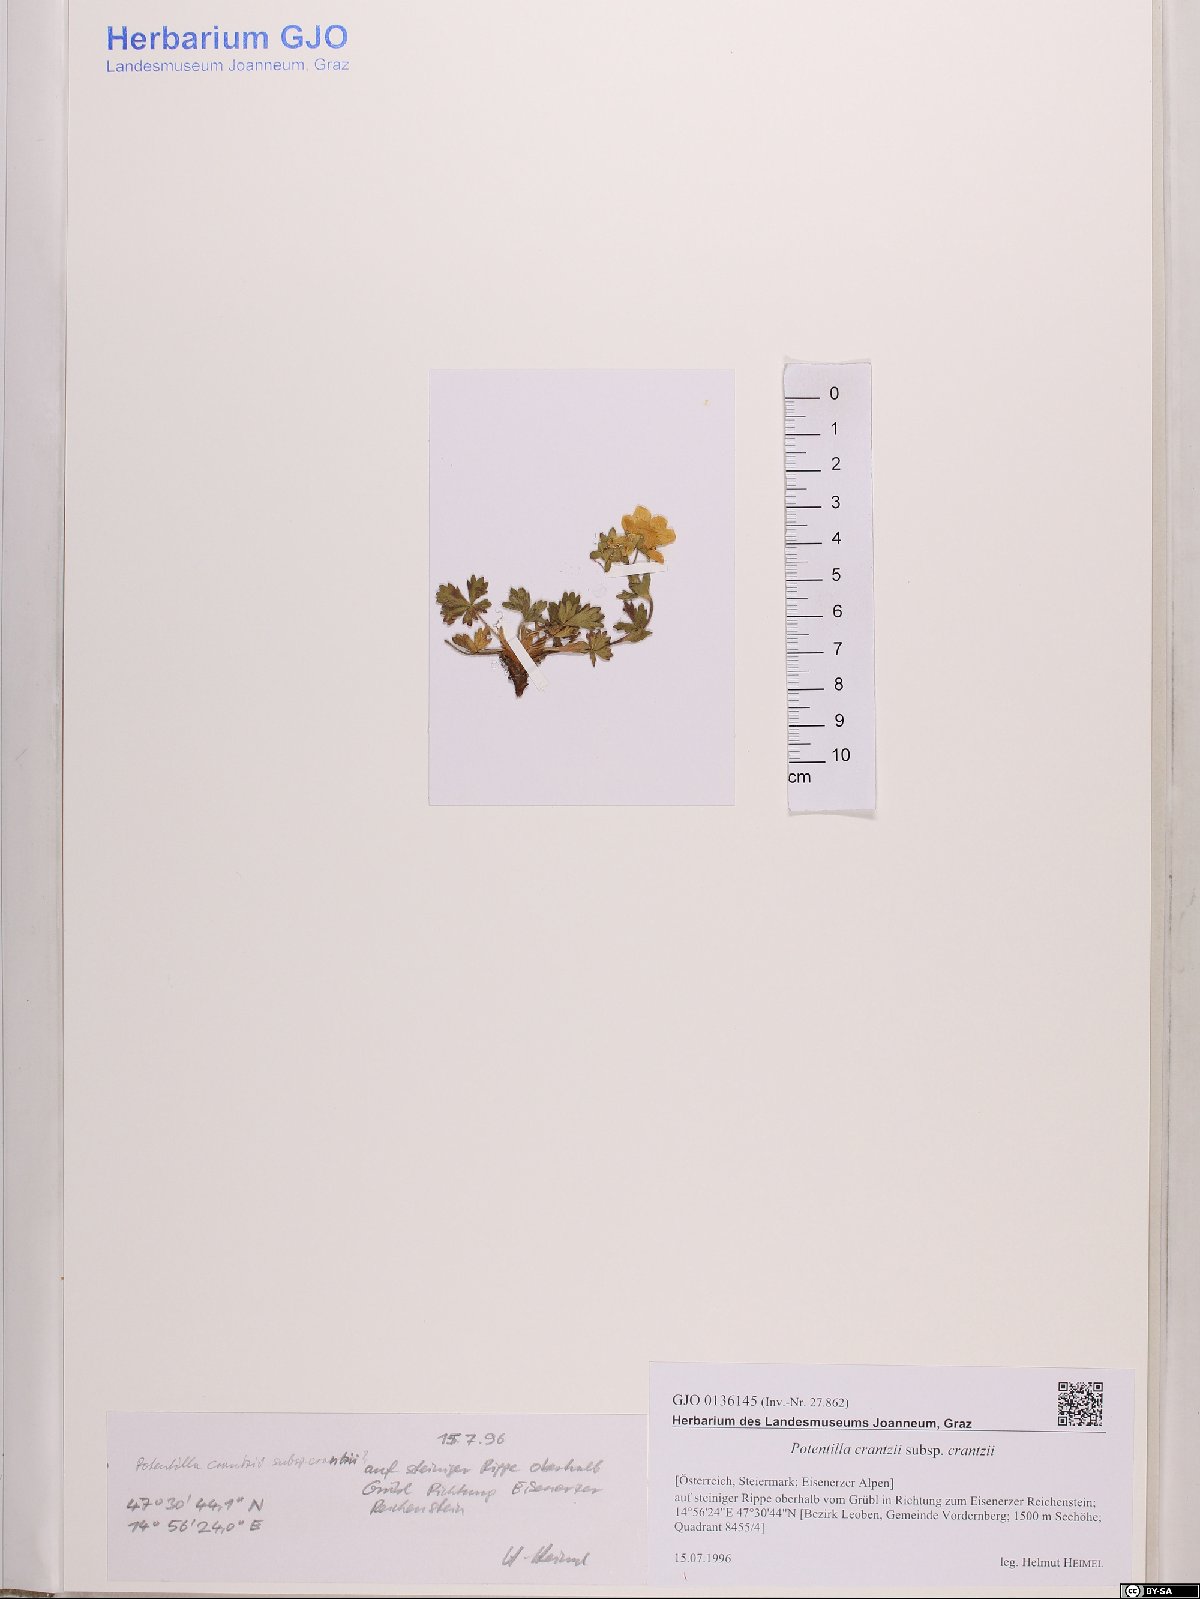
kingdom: Plantae
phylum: Tracheophyta
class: Magnoliopsida
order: Rosales
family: Rosaceae
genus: Potentilla
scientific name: Potentilla crantzii
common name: Alpine cinquefoil
